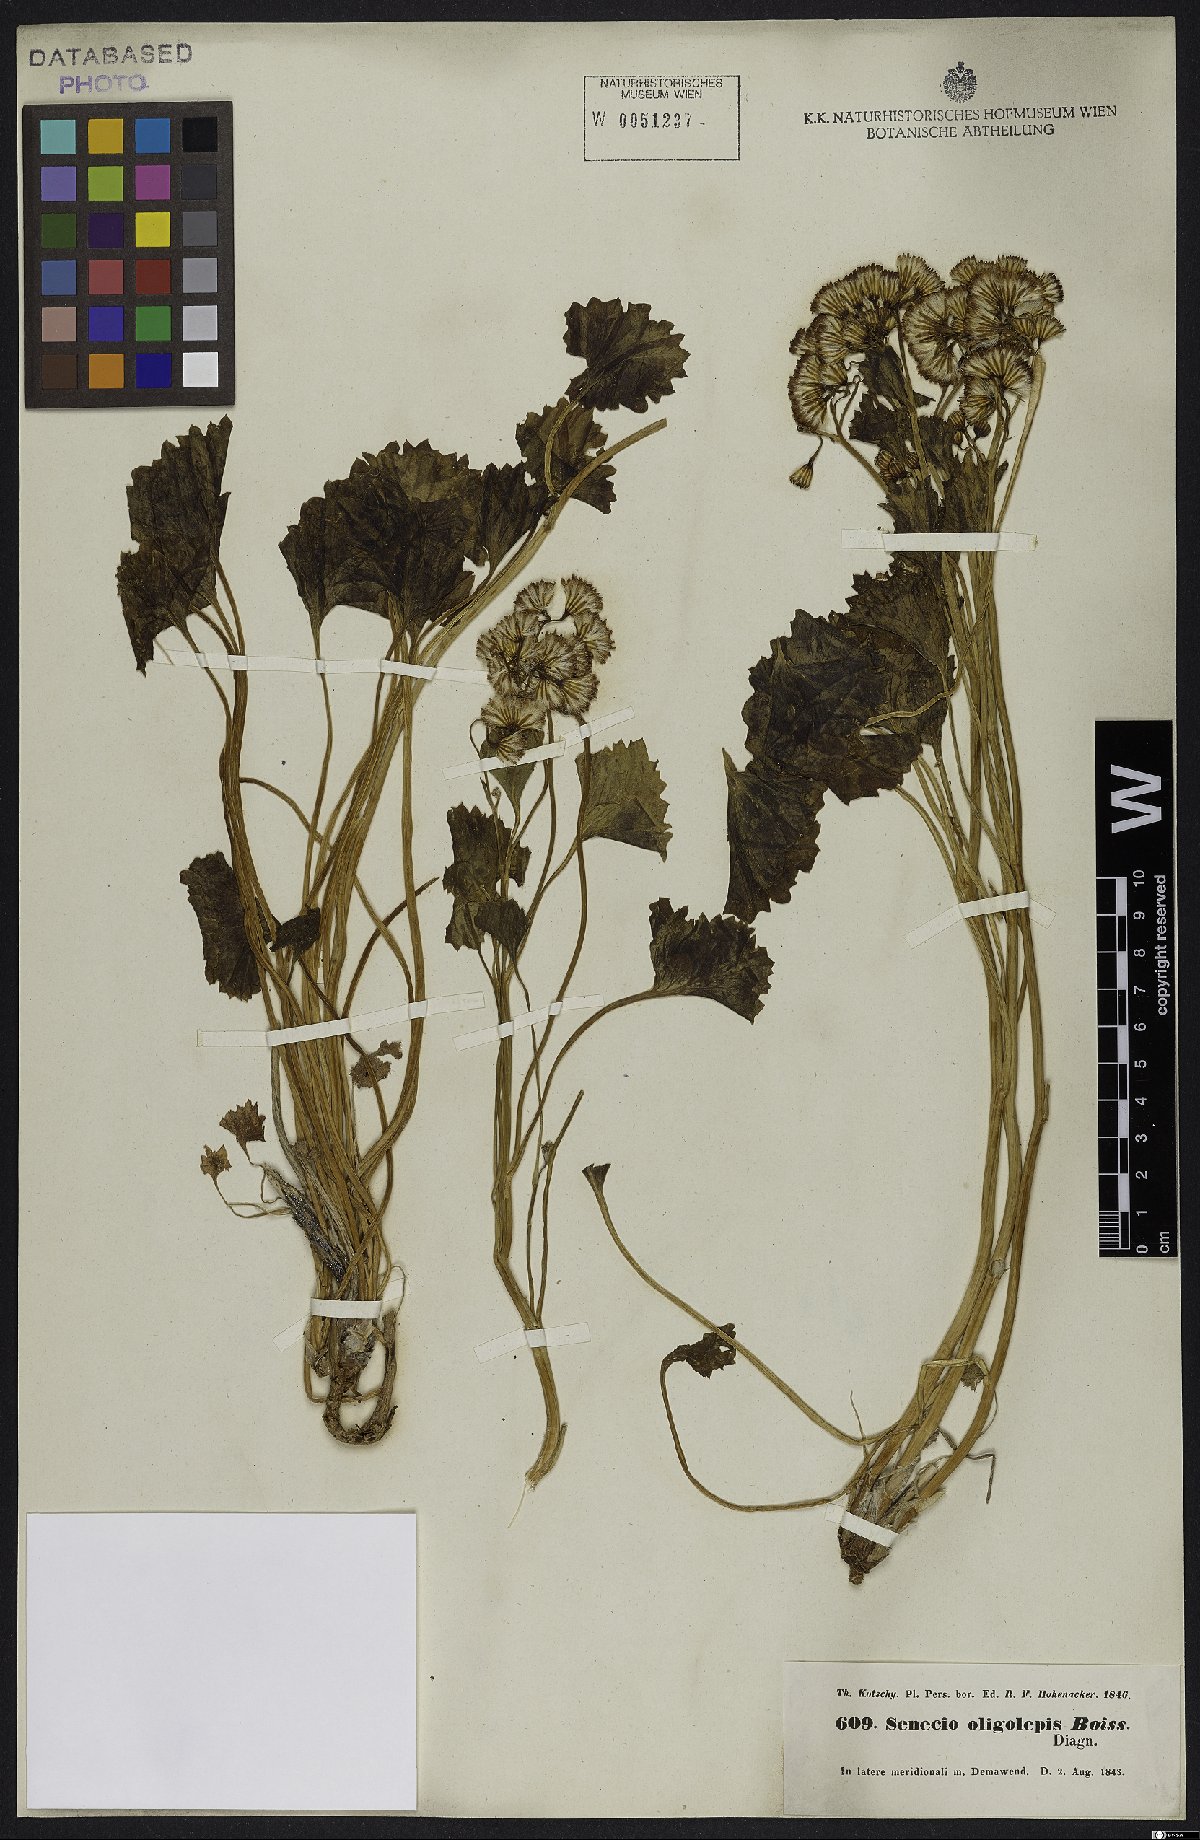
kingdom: Plantae
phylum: Tracheophyta
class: Magnoliopsida
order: Asterales
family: Asteraceae
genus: Iranecio
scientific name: Iranecio oligolepis
